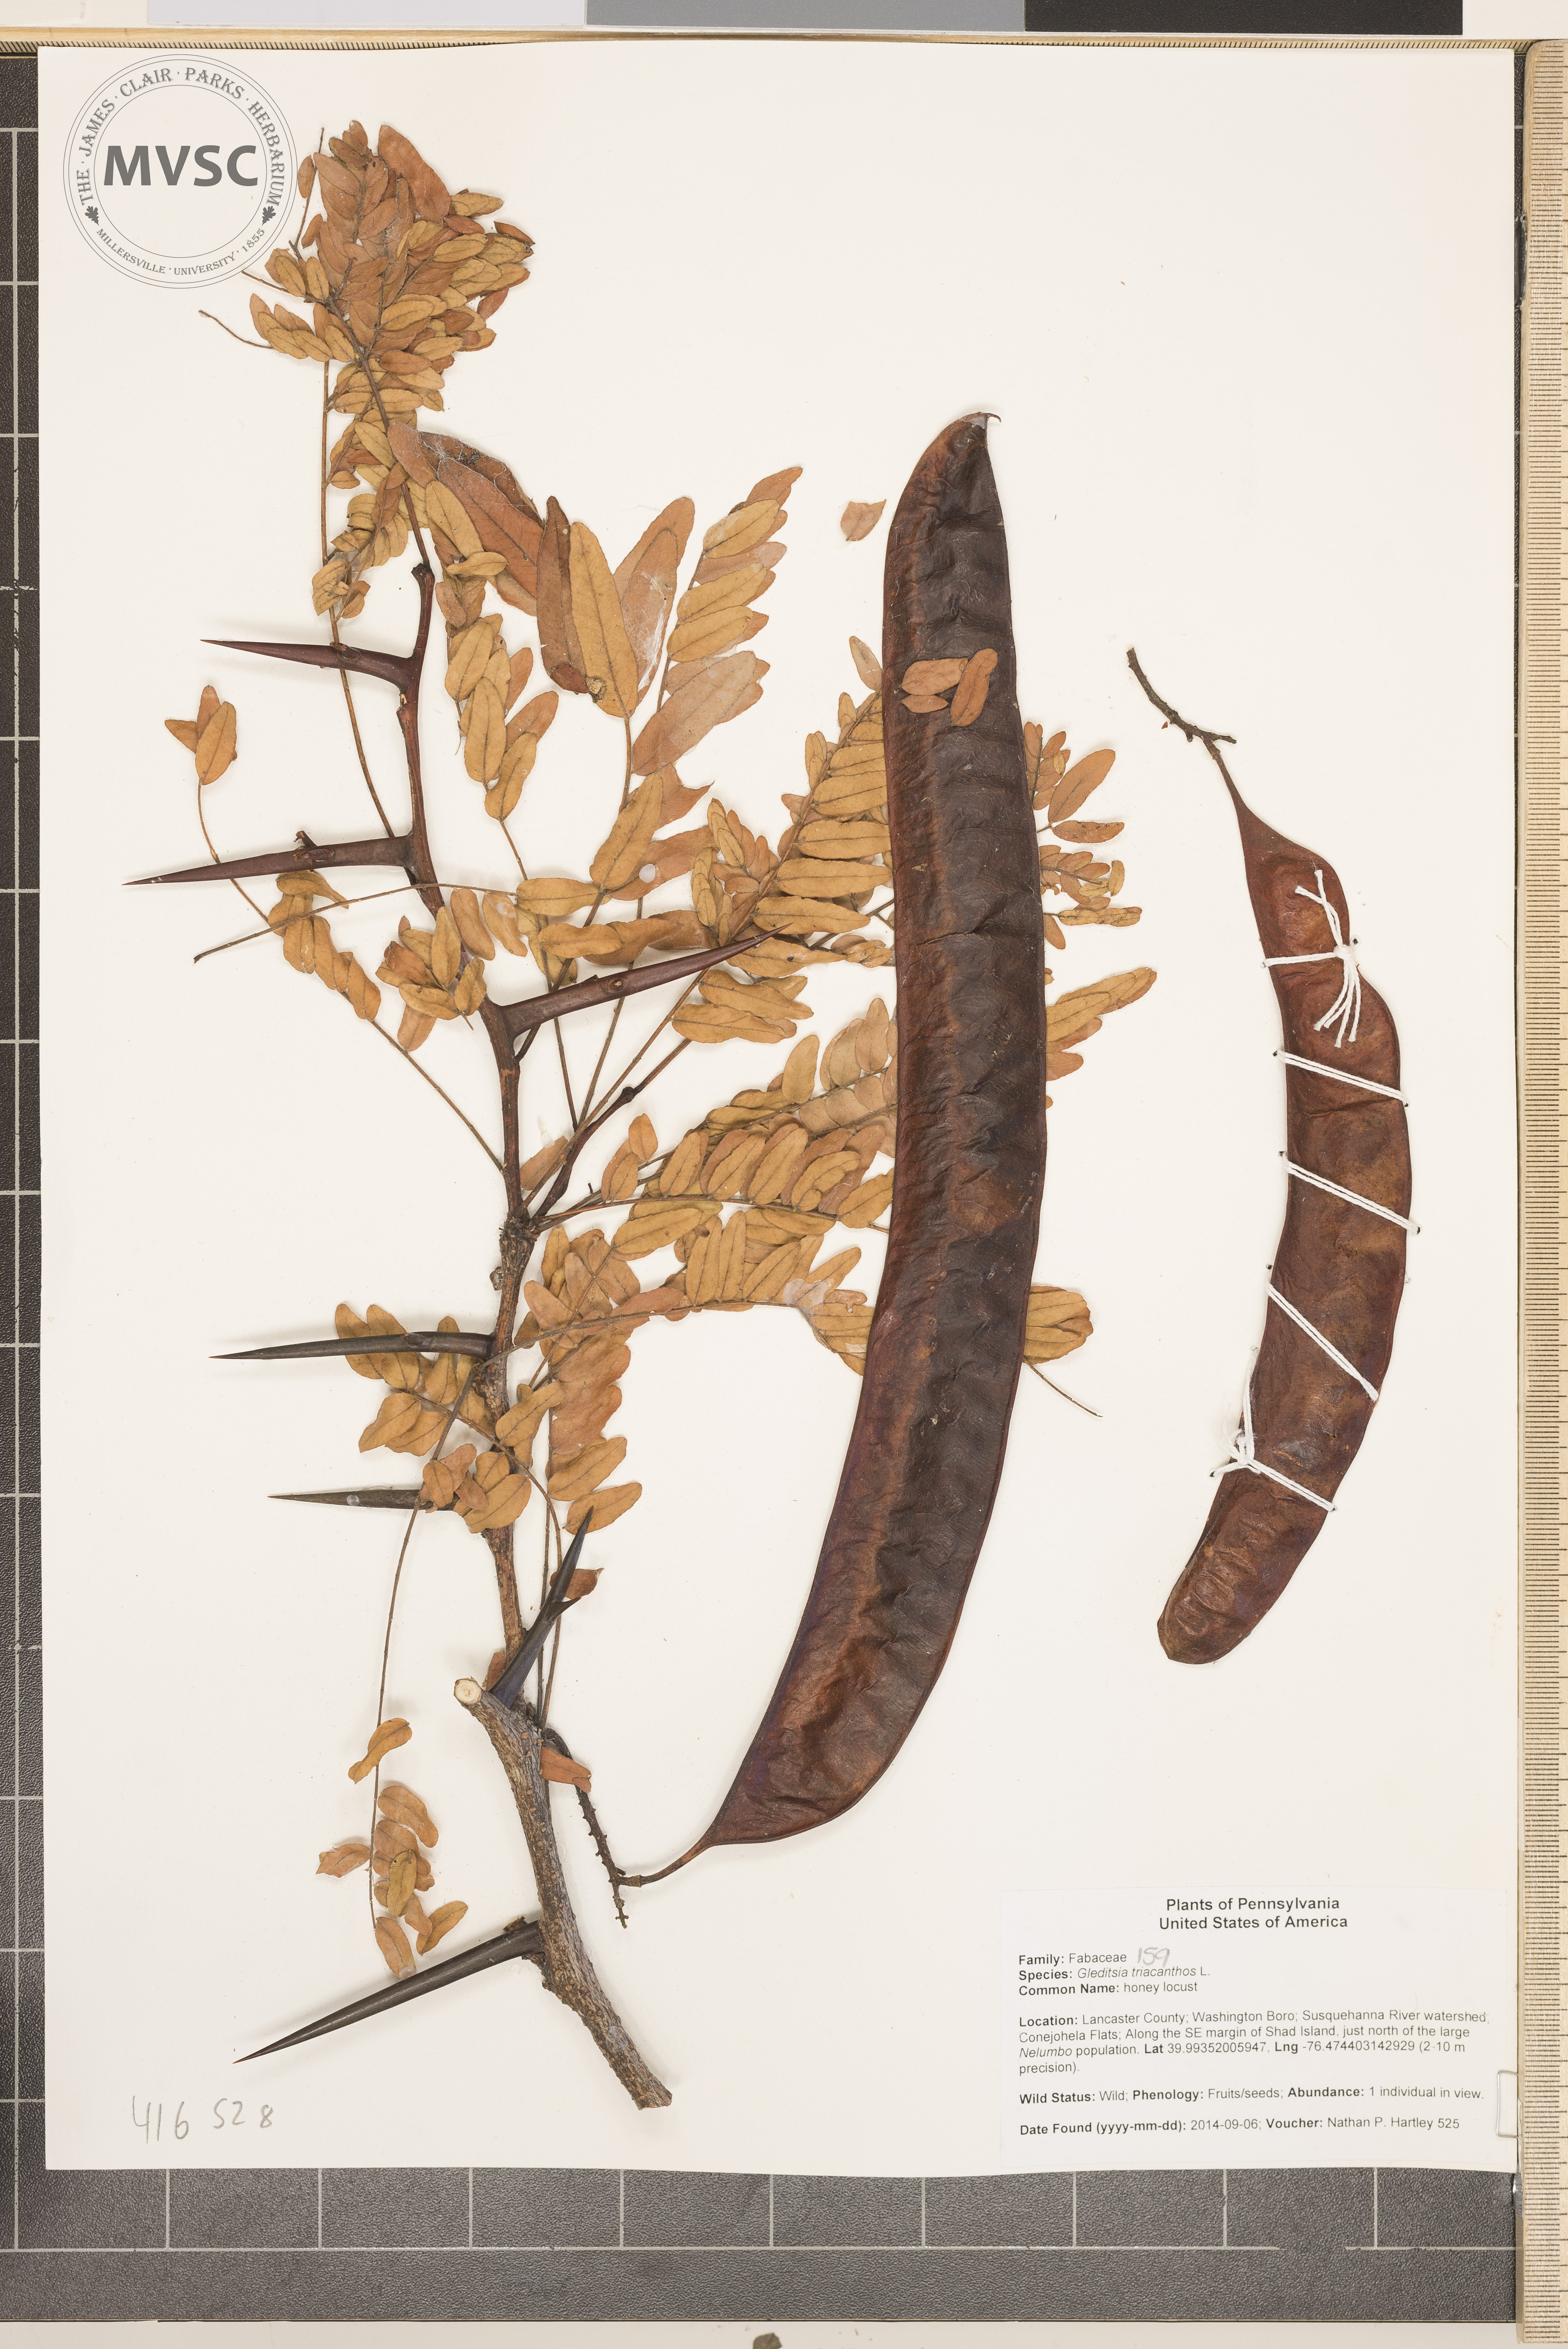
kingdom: Plantae
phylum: Tracheophyta
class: Magnoliopsida
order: Fabales
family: Fabaceae
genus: Gleditsia
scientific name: Gleditsia triacanthos
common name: honey locust
